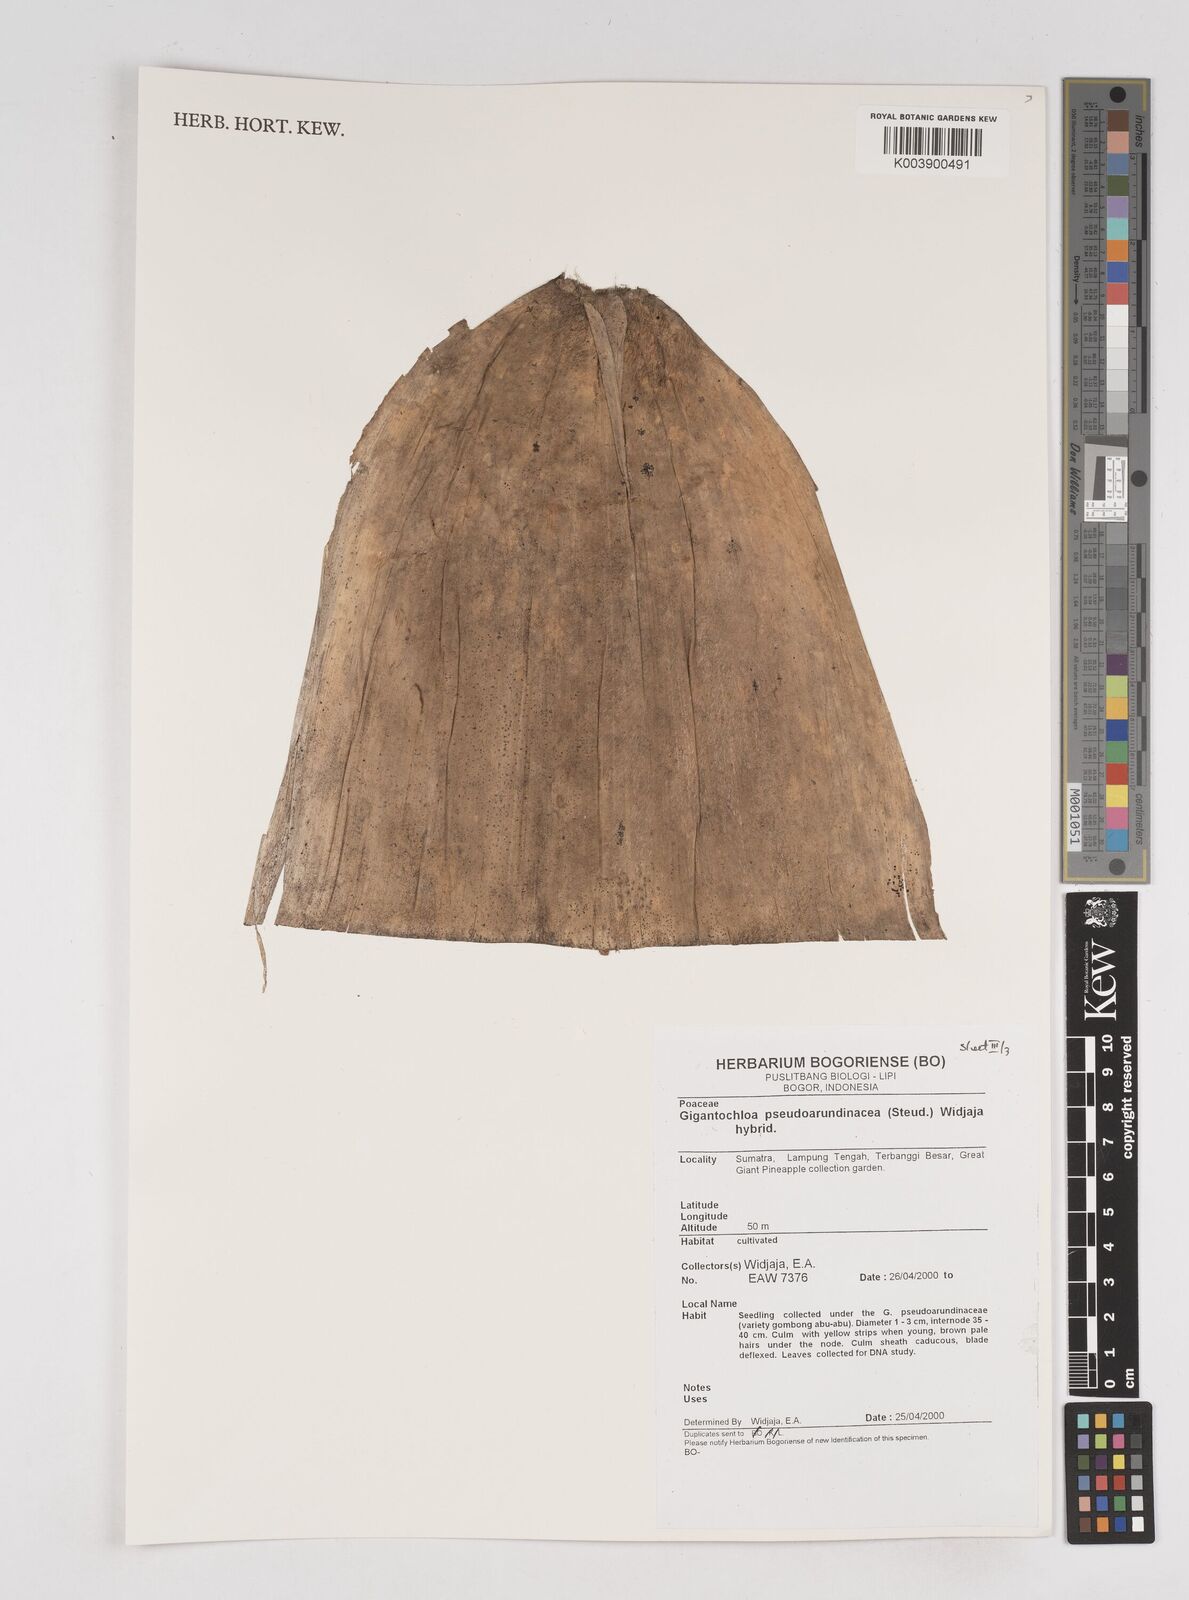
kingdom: Plantae
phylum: Tracheophyta
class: Liliopsida
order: Poales
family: Poaceae
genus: Gigantochloa
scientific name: Gigantochloa verticillata
